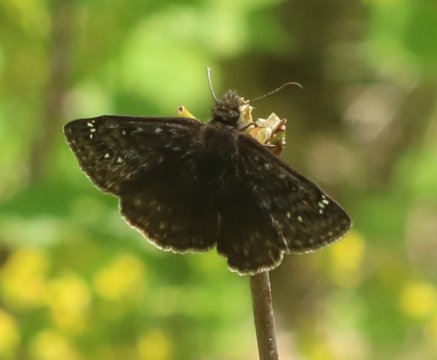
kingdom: Animalia
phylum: Arthropoda
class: Insecta
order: Lepidoptera
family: Hesperiidae
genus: Gesta
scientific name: Gesta
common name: Juvenal's Duskywing
